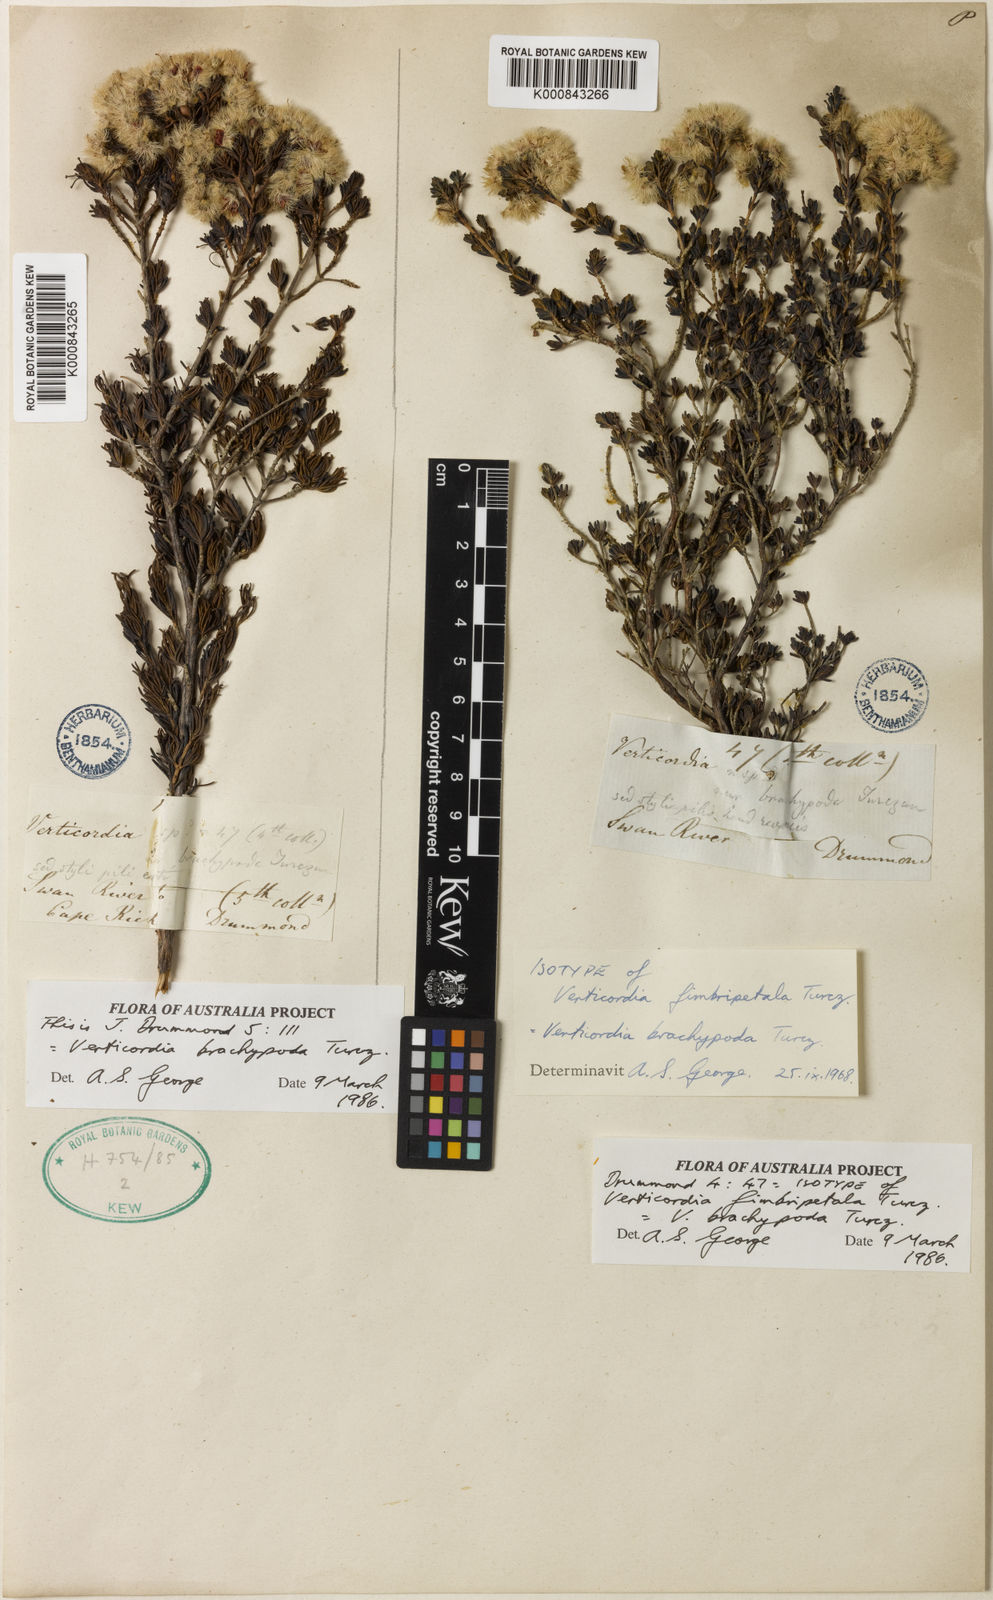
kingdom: Plantae
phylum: Tracheophyta
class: Magnoliopsida
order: Myrtales
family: Myrtaceae
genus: Verticordia
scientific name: Verticordia brachypoda
